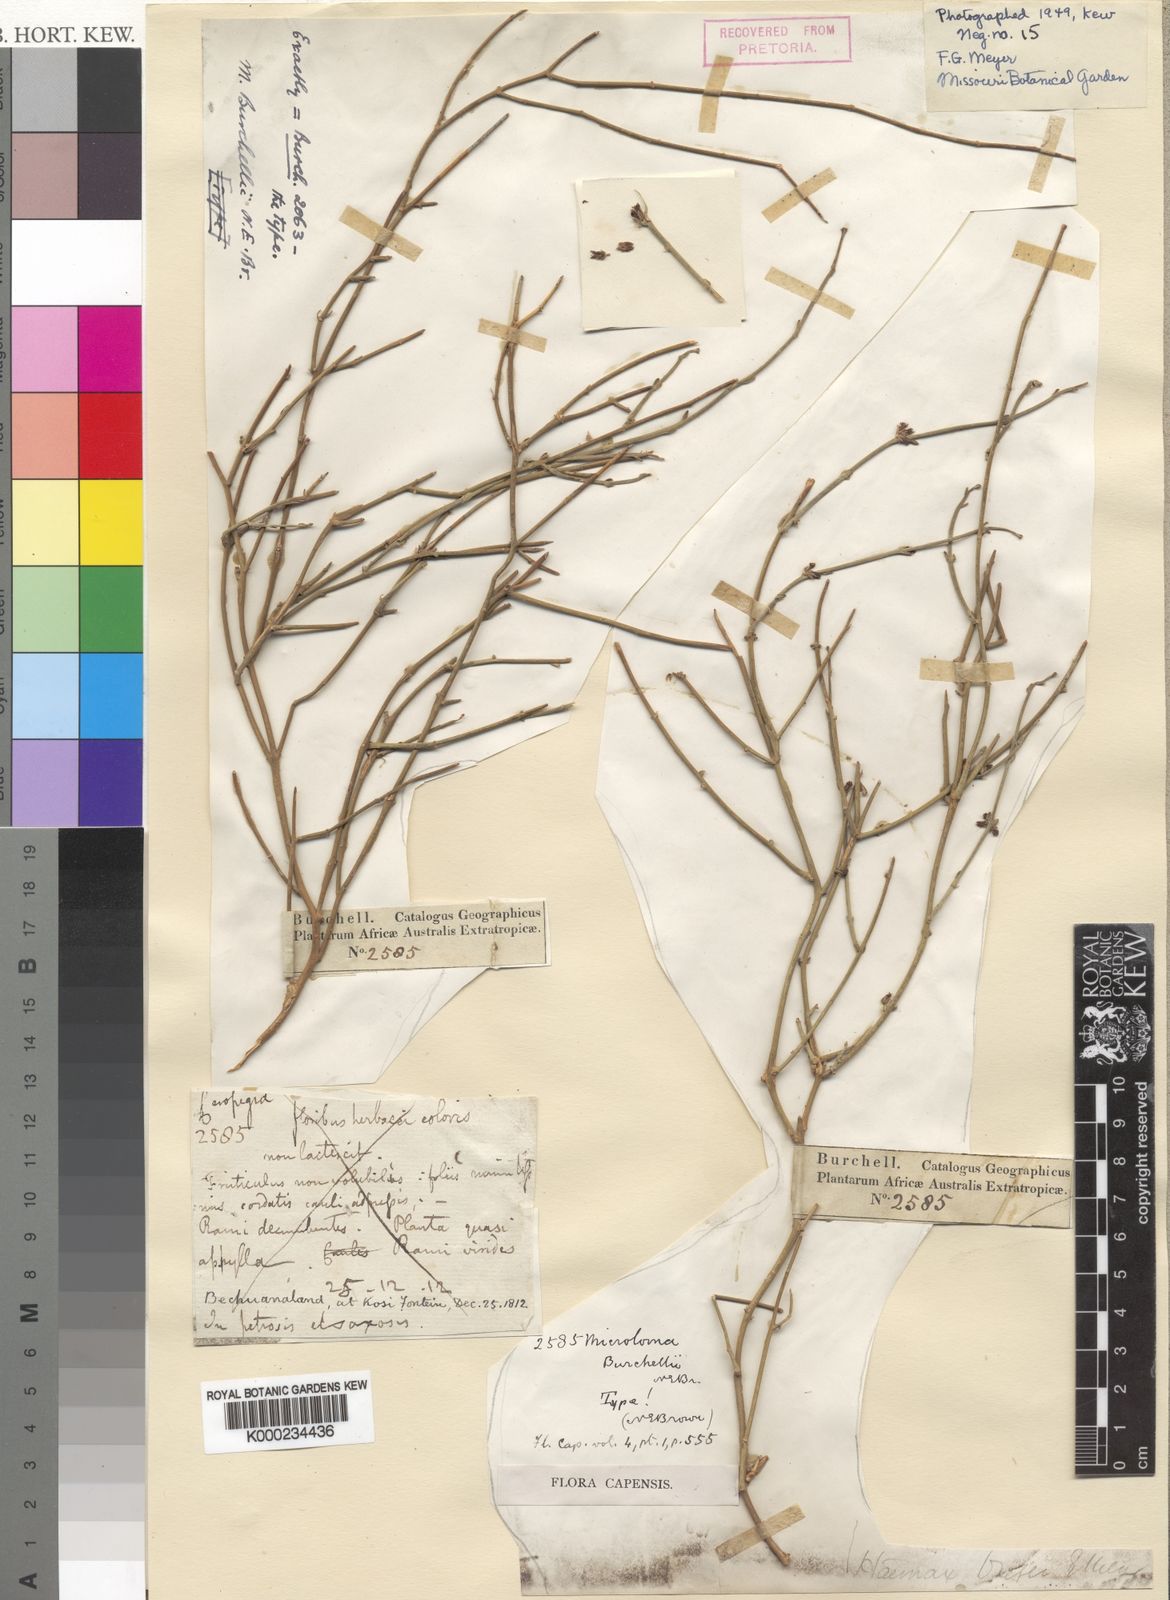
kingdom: Plantae
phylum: Tracheophyta
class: Magnoliopsida
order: Gentianales
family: Apocynaceae
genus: Microloma
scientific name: Microloma armatum
